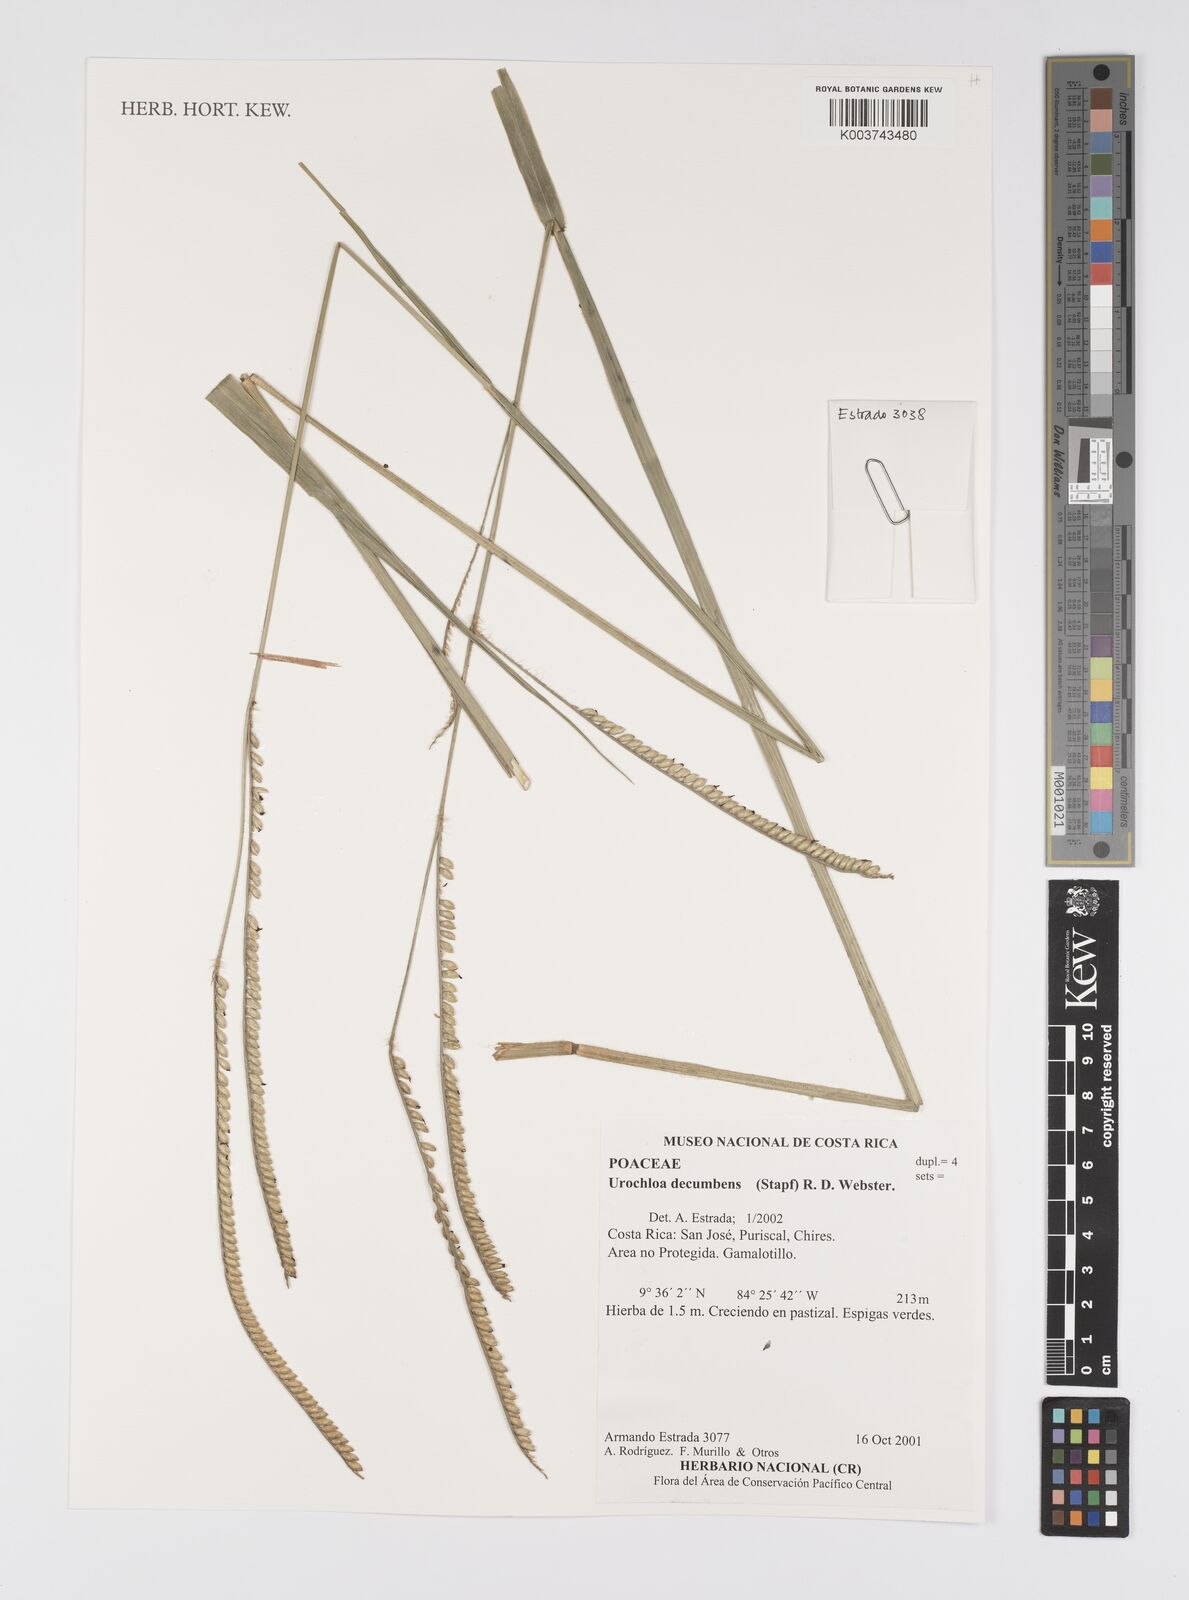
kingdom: Plantae
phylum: Tracheophyta
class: Liliopsida
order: Poales
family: Poaceae
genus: Urochloa
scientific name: Urochloa eminii
